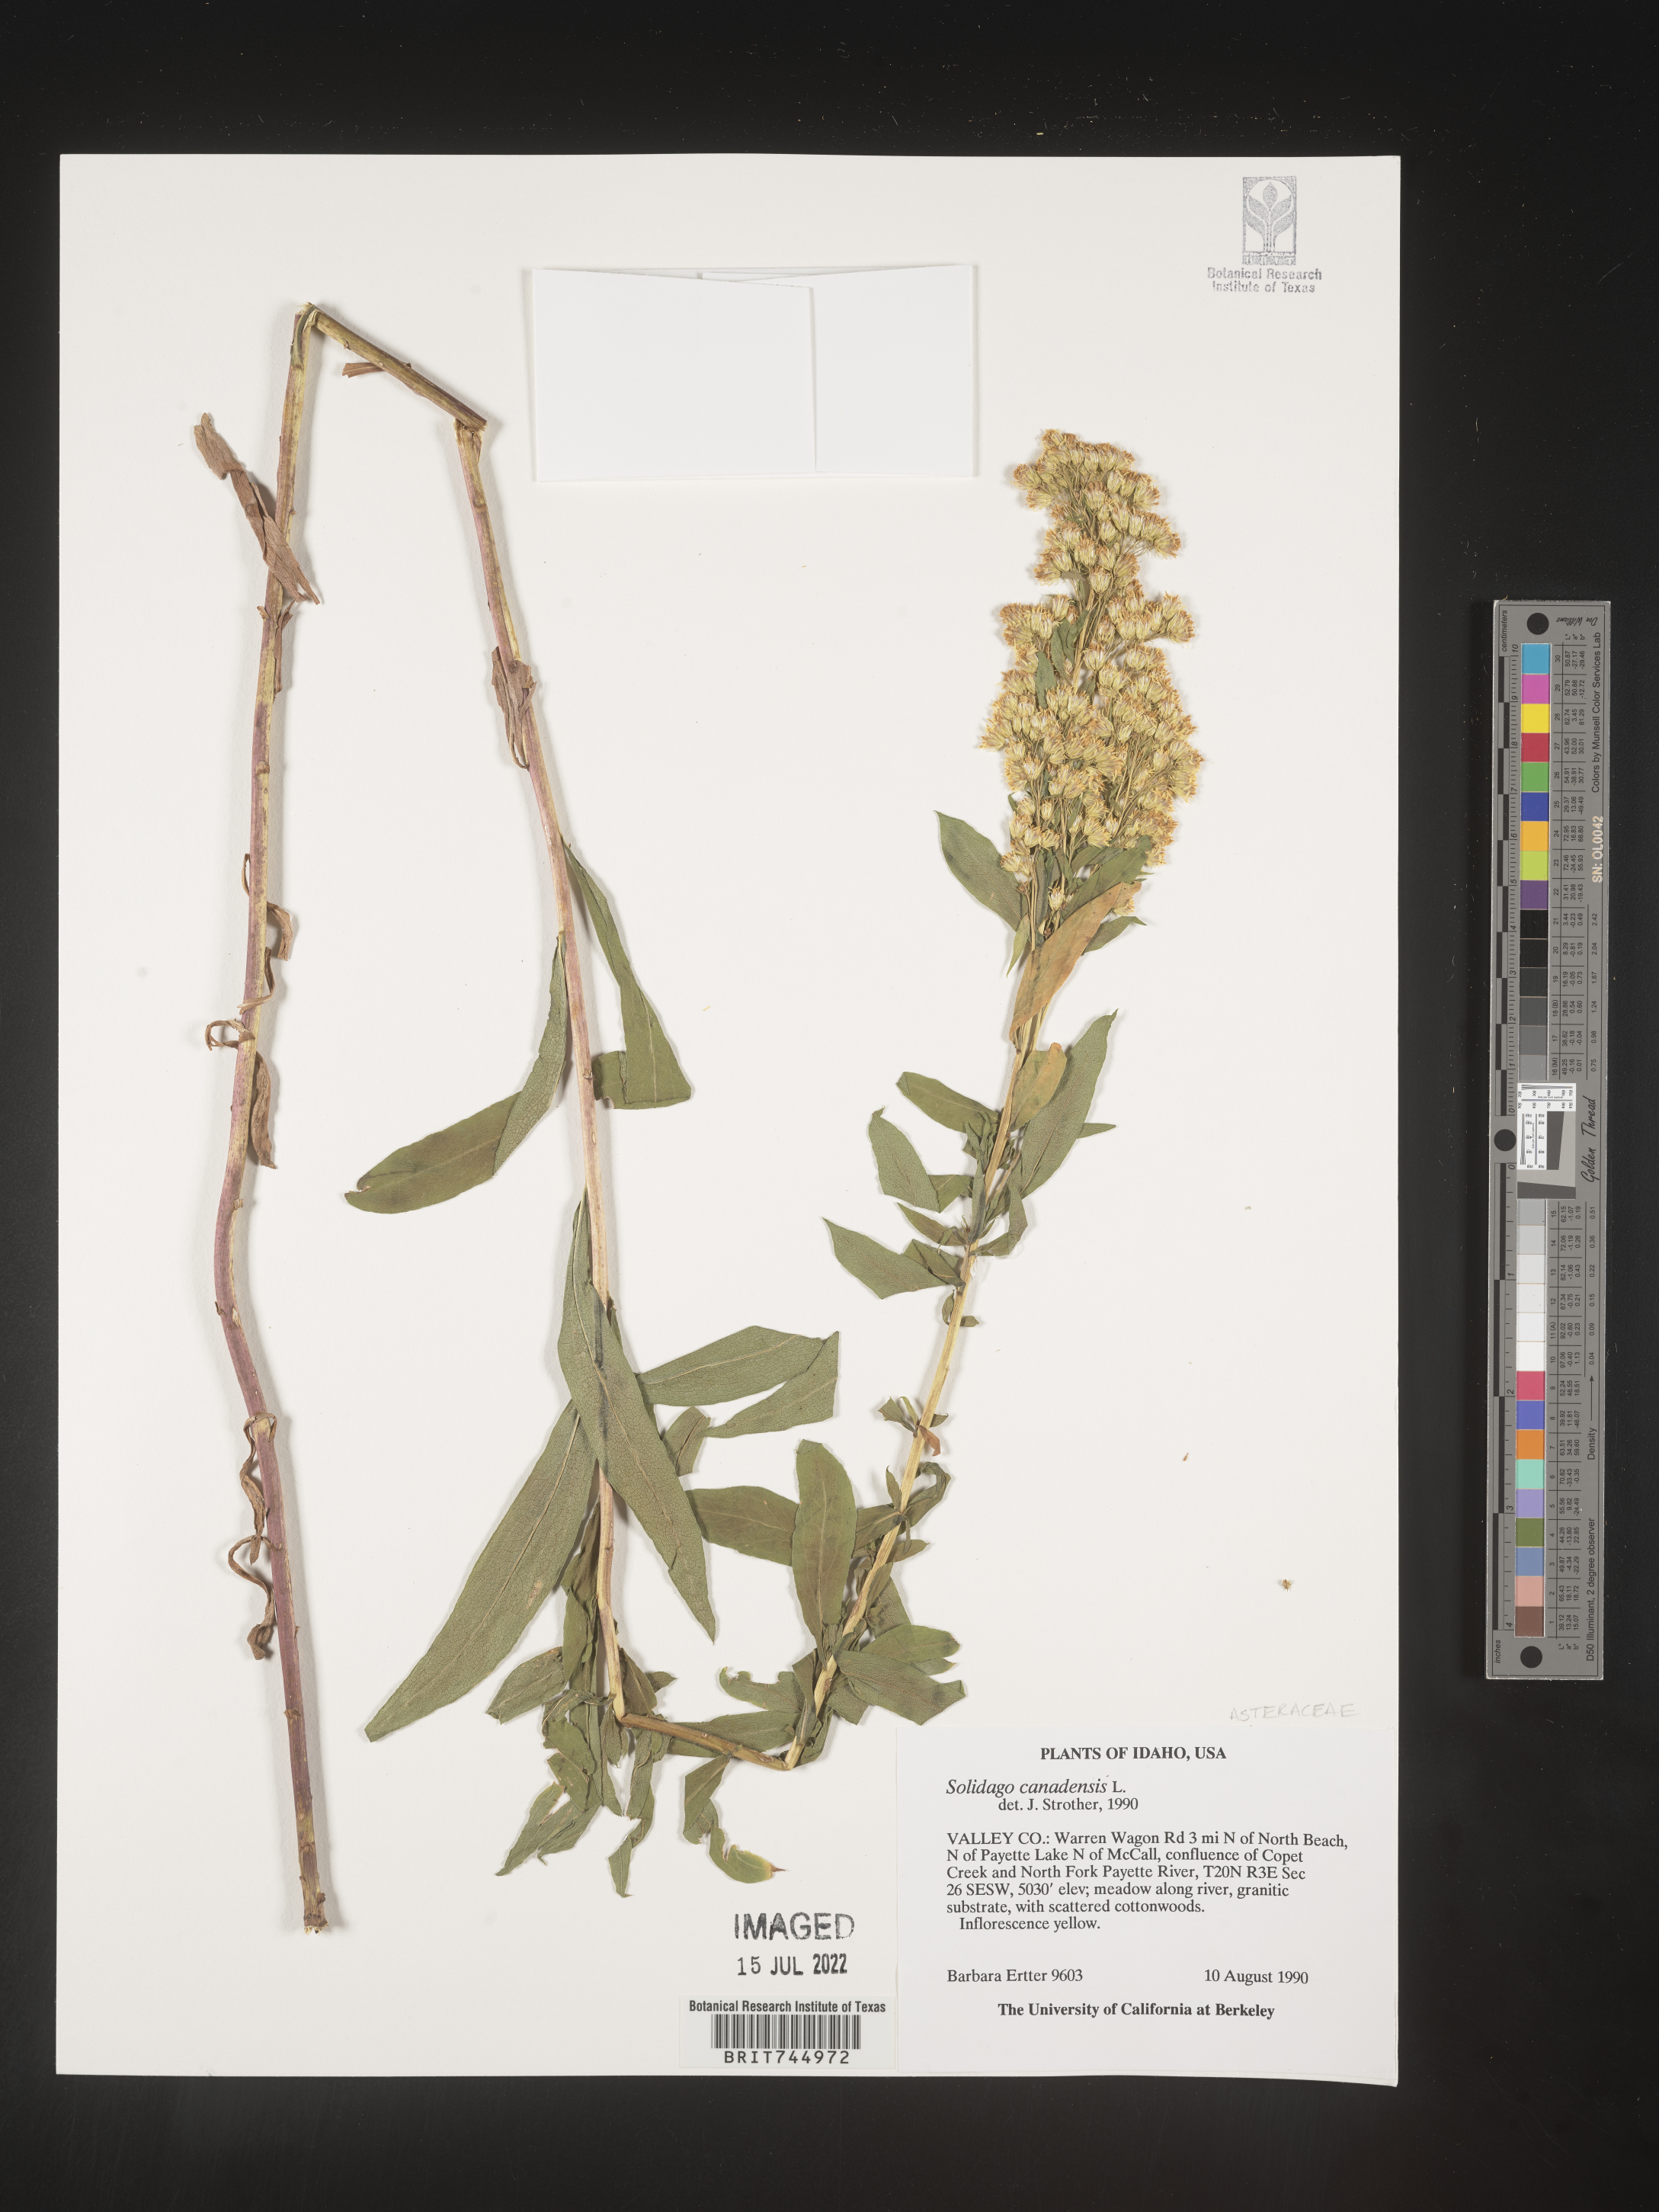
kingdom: Plantae
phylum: Tracheophyta
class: Magnoliopsida
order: Asterales
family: Asteraceae
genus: Solidago
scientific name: Solidago canadensis
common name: Canada goldenrod
